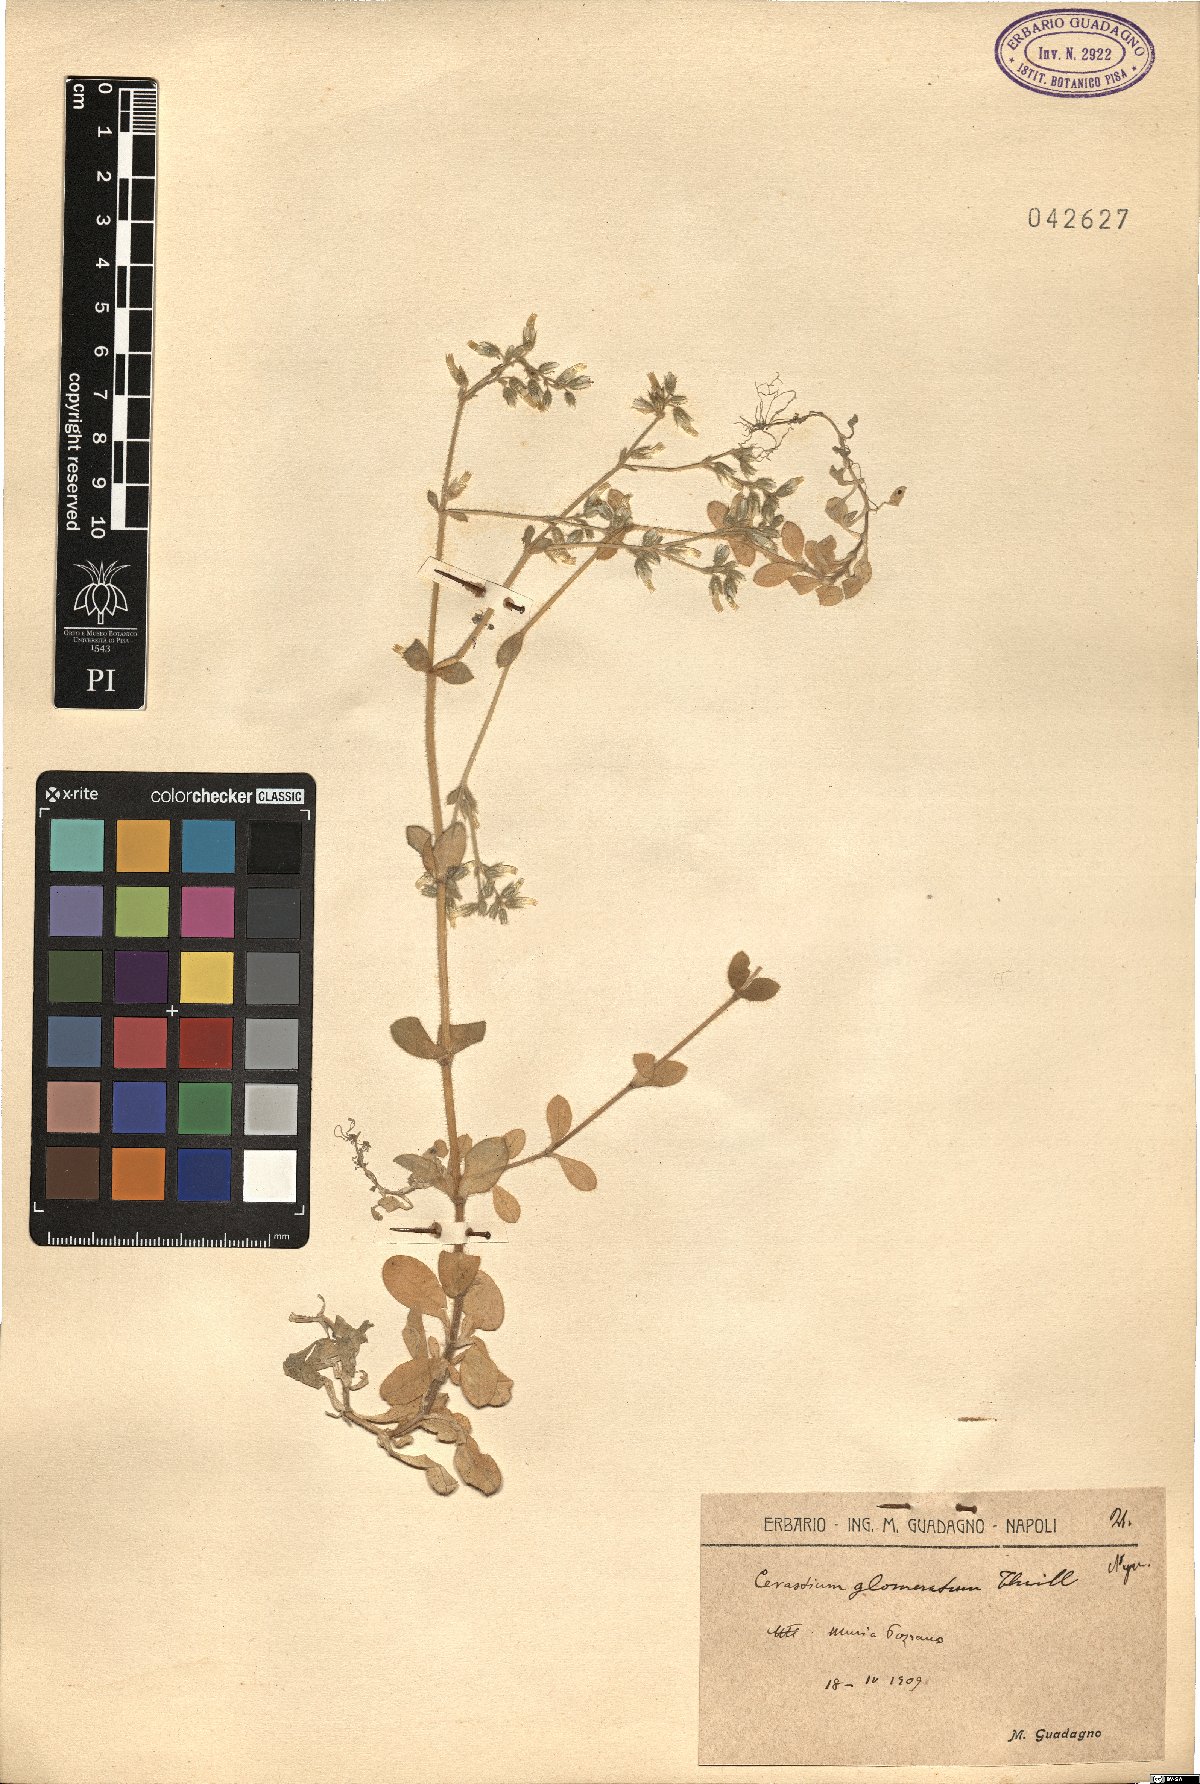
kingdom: Plantae
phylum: Tracheophyta
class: Magnoliopsida
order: Caryophyllales
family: Caryophyllaceae
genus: Cerastium
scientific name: Cerastium glomeratum
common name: Sticky chickweed
